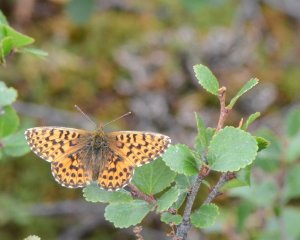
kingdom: Animalia
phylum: Arthropoda
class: Insecta
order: Lepidoptera
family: Nymphalidae
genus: Boloria
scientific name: Boloria chariclea
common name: Arctic Fritillary
